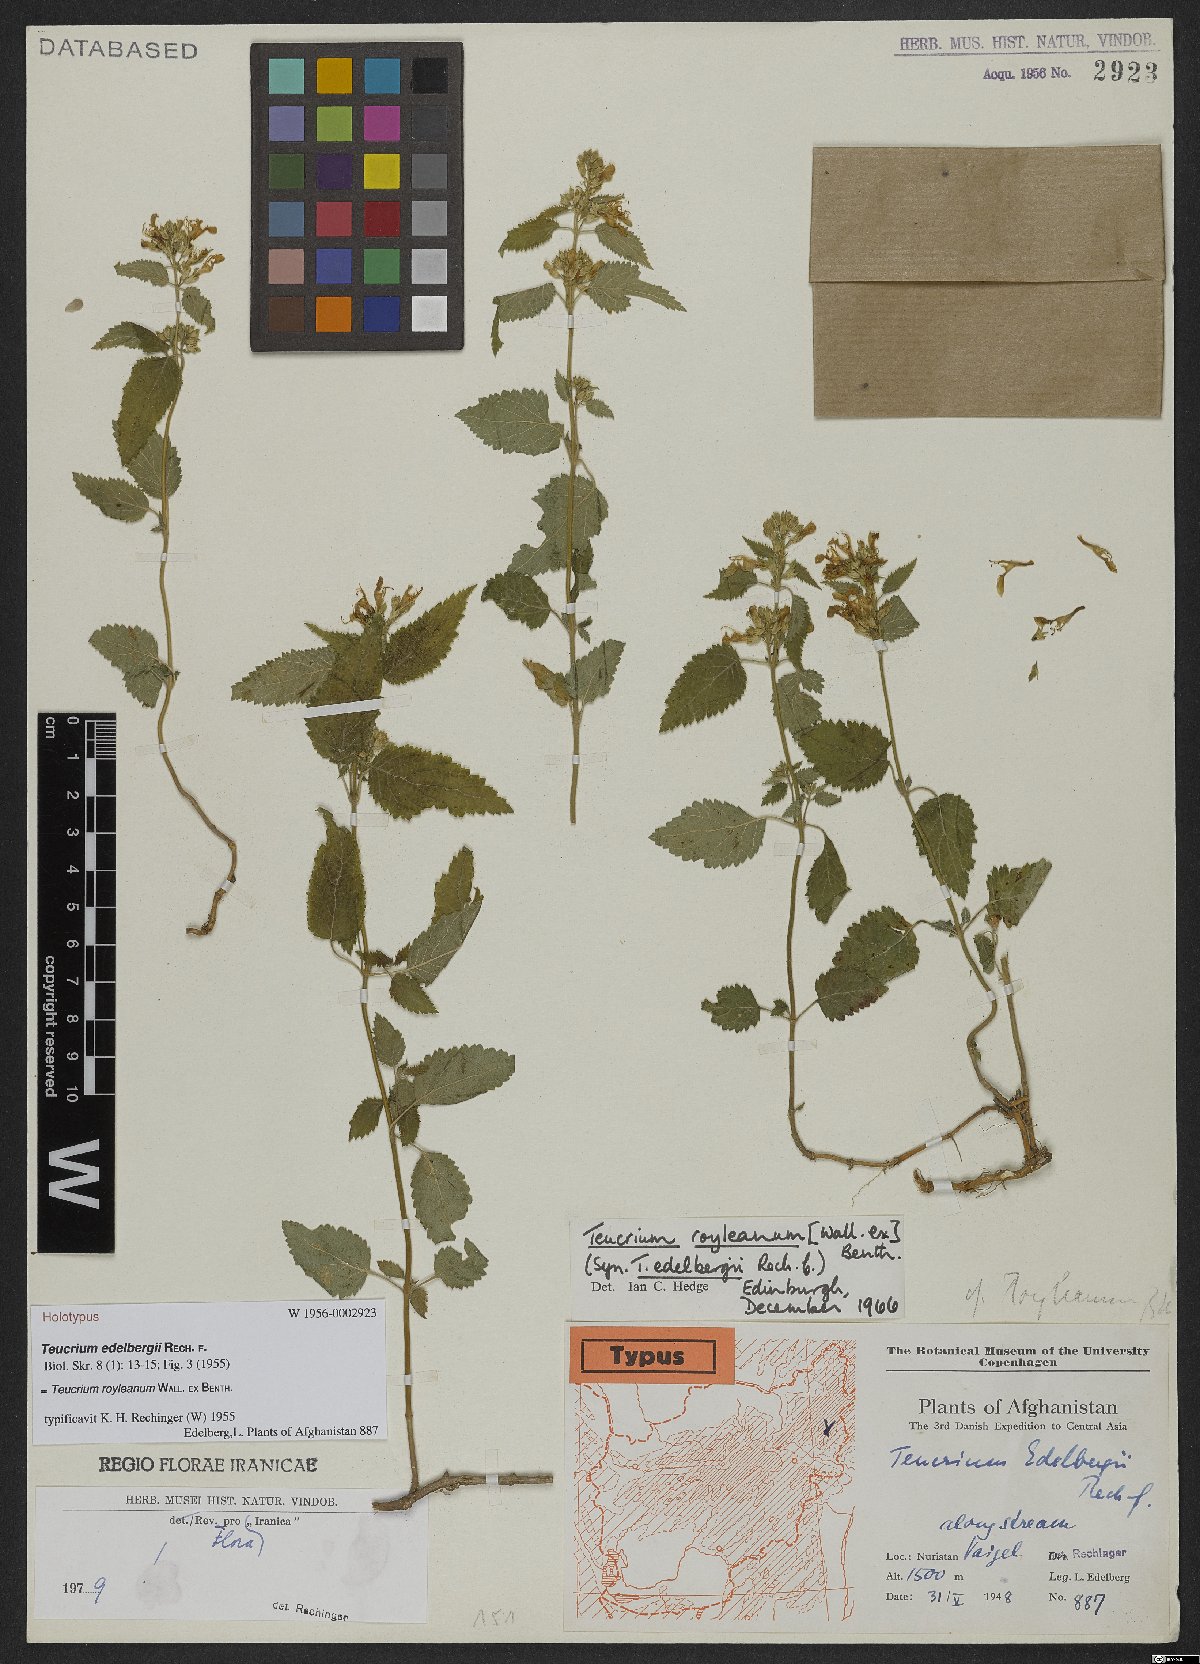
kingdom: Plantae
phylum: Tracheophyta
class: Magnoliopsida
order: Lamiales
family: Lamiaceae
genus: Teucrium
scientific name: Teucrium royleanum
